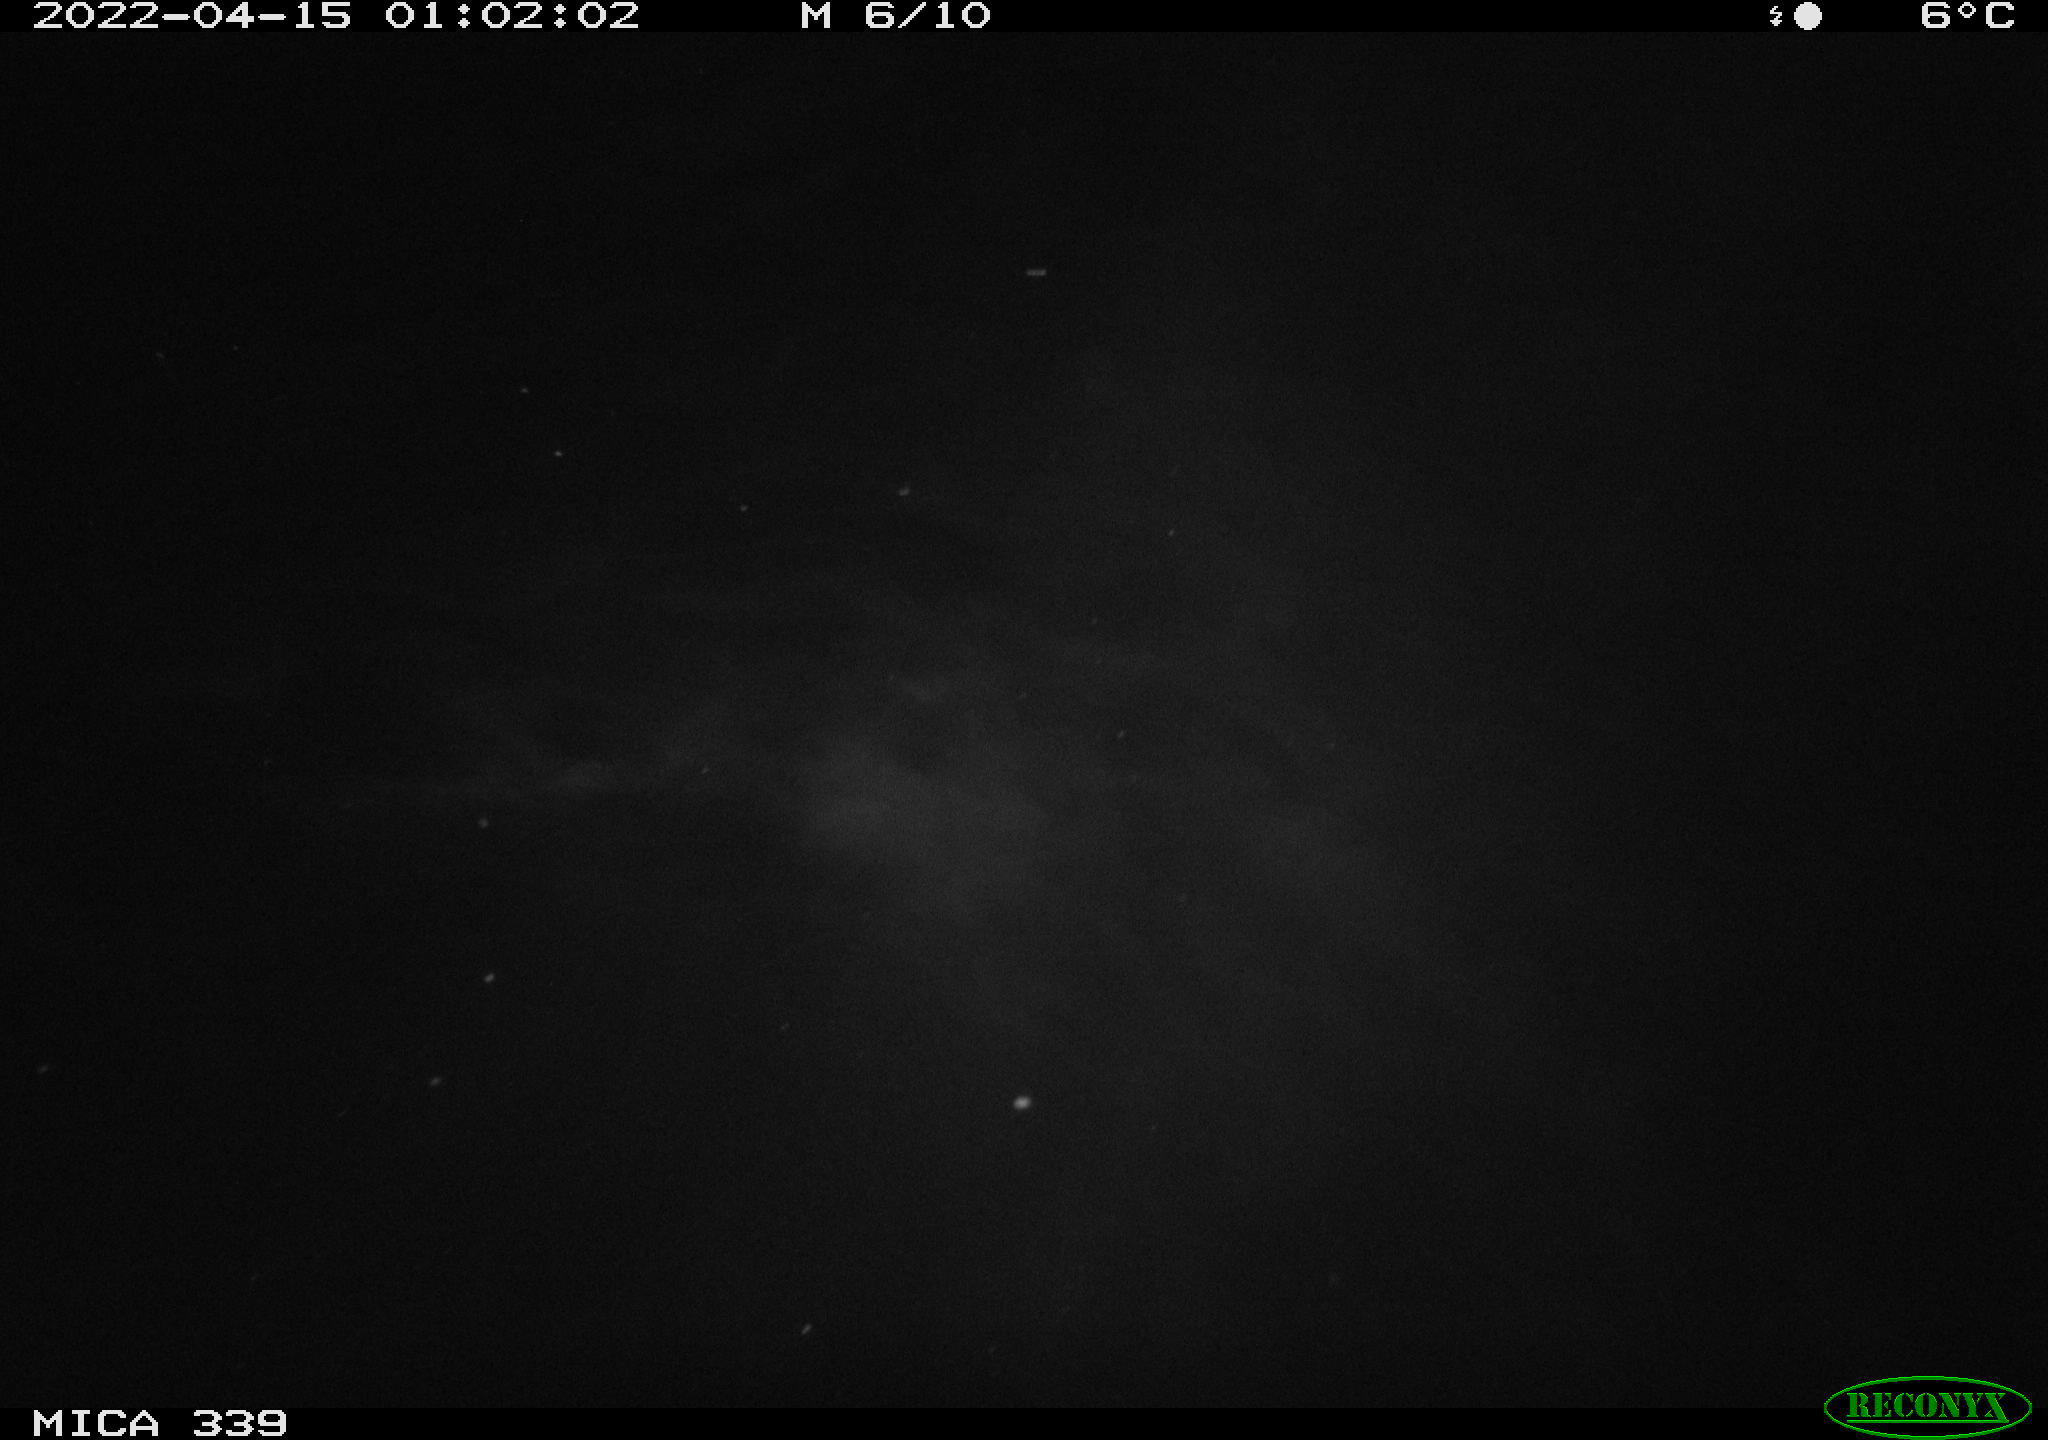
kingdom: Animalia
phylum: Chordata
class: Mammalia
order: Rodentia
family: Muridae
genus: Rattus
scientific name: Rattus norvegicus
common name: Brown rat
